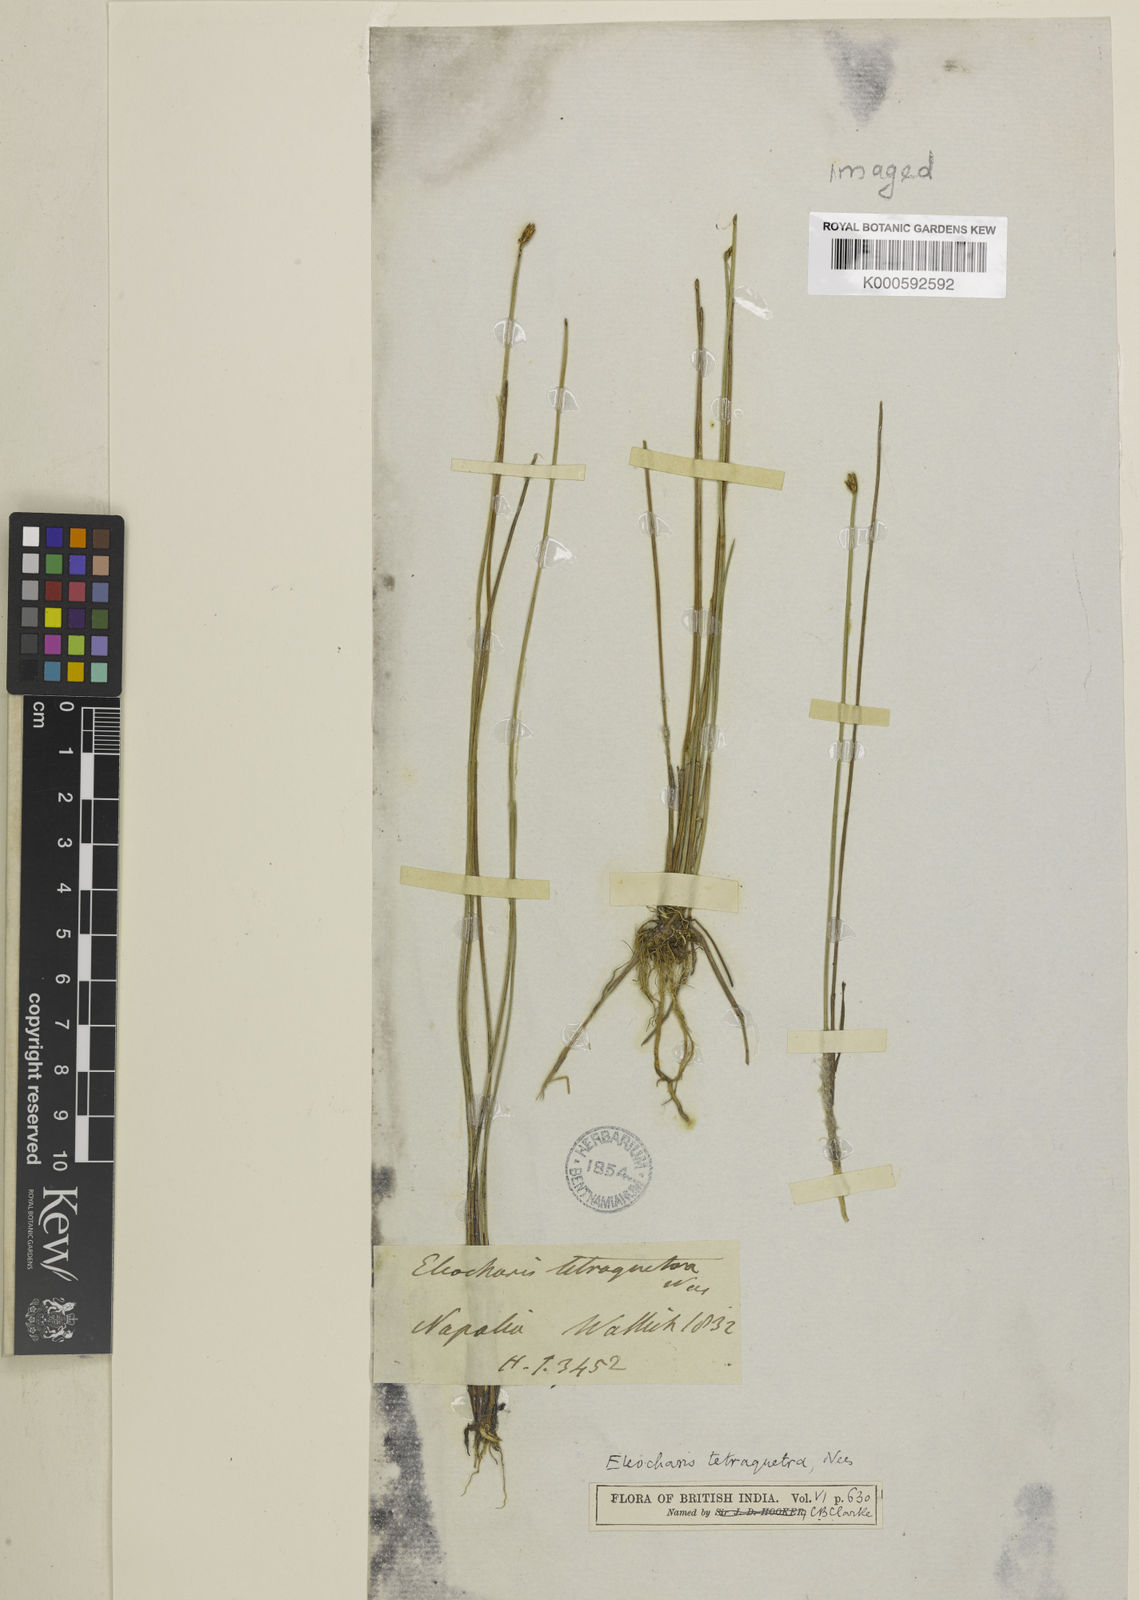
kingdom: Plantae
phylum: Tracheophyta
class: Liliopsida
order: Poales
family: Cyperaceae
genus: Eleocharis
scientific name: Eleocharis tetraquetra
